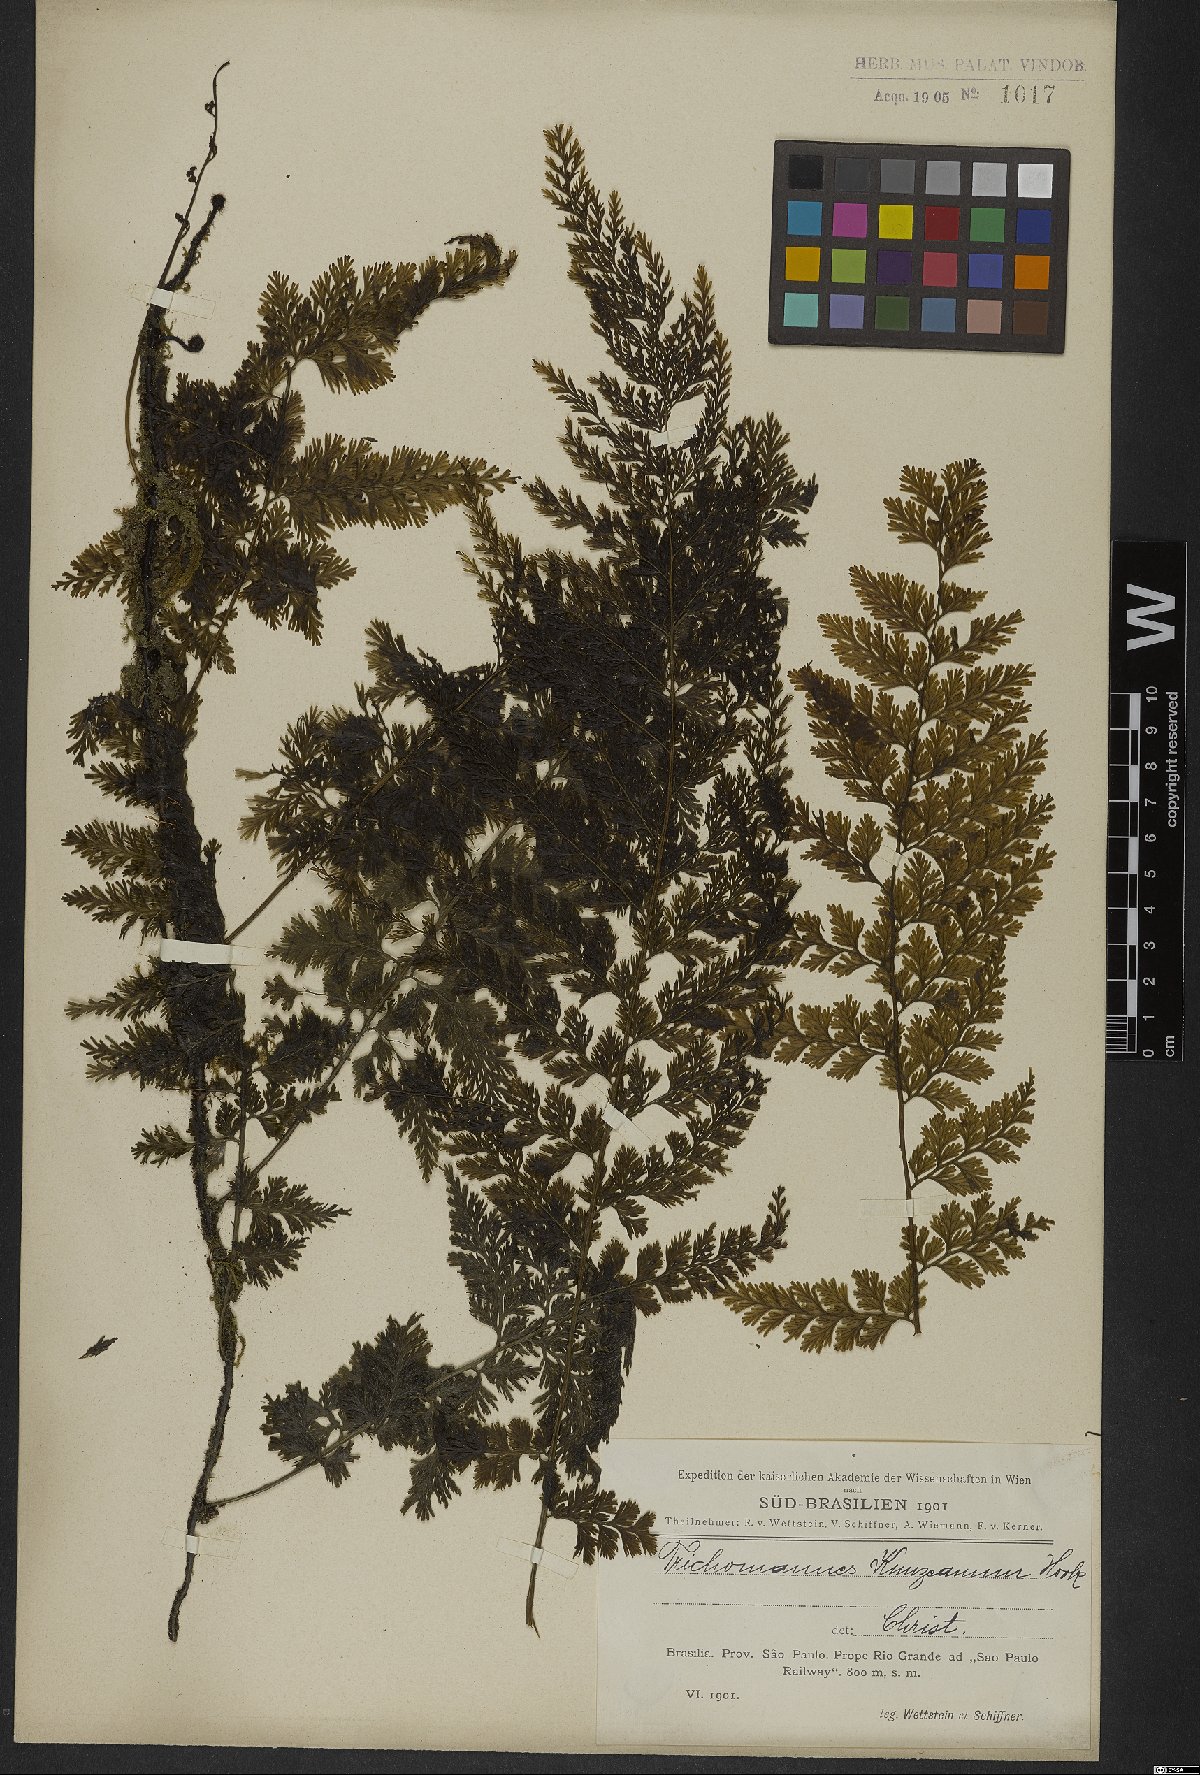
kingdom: Plantae
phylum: Tracheophyta
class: Polypodiopsida
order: Hymenophyllales
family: Hymenophyllaceae
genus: Vandenboschia
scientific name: Vandenboschia radicans
